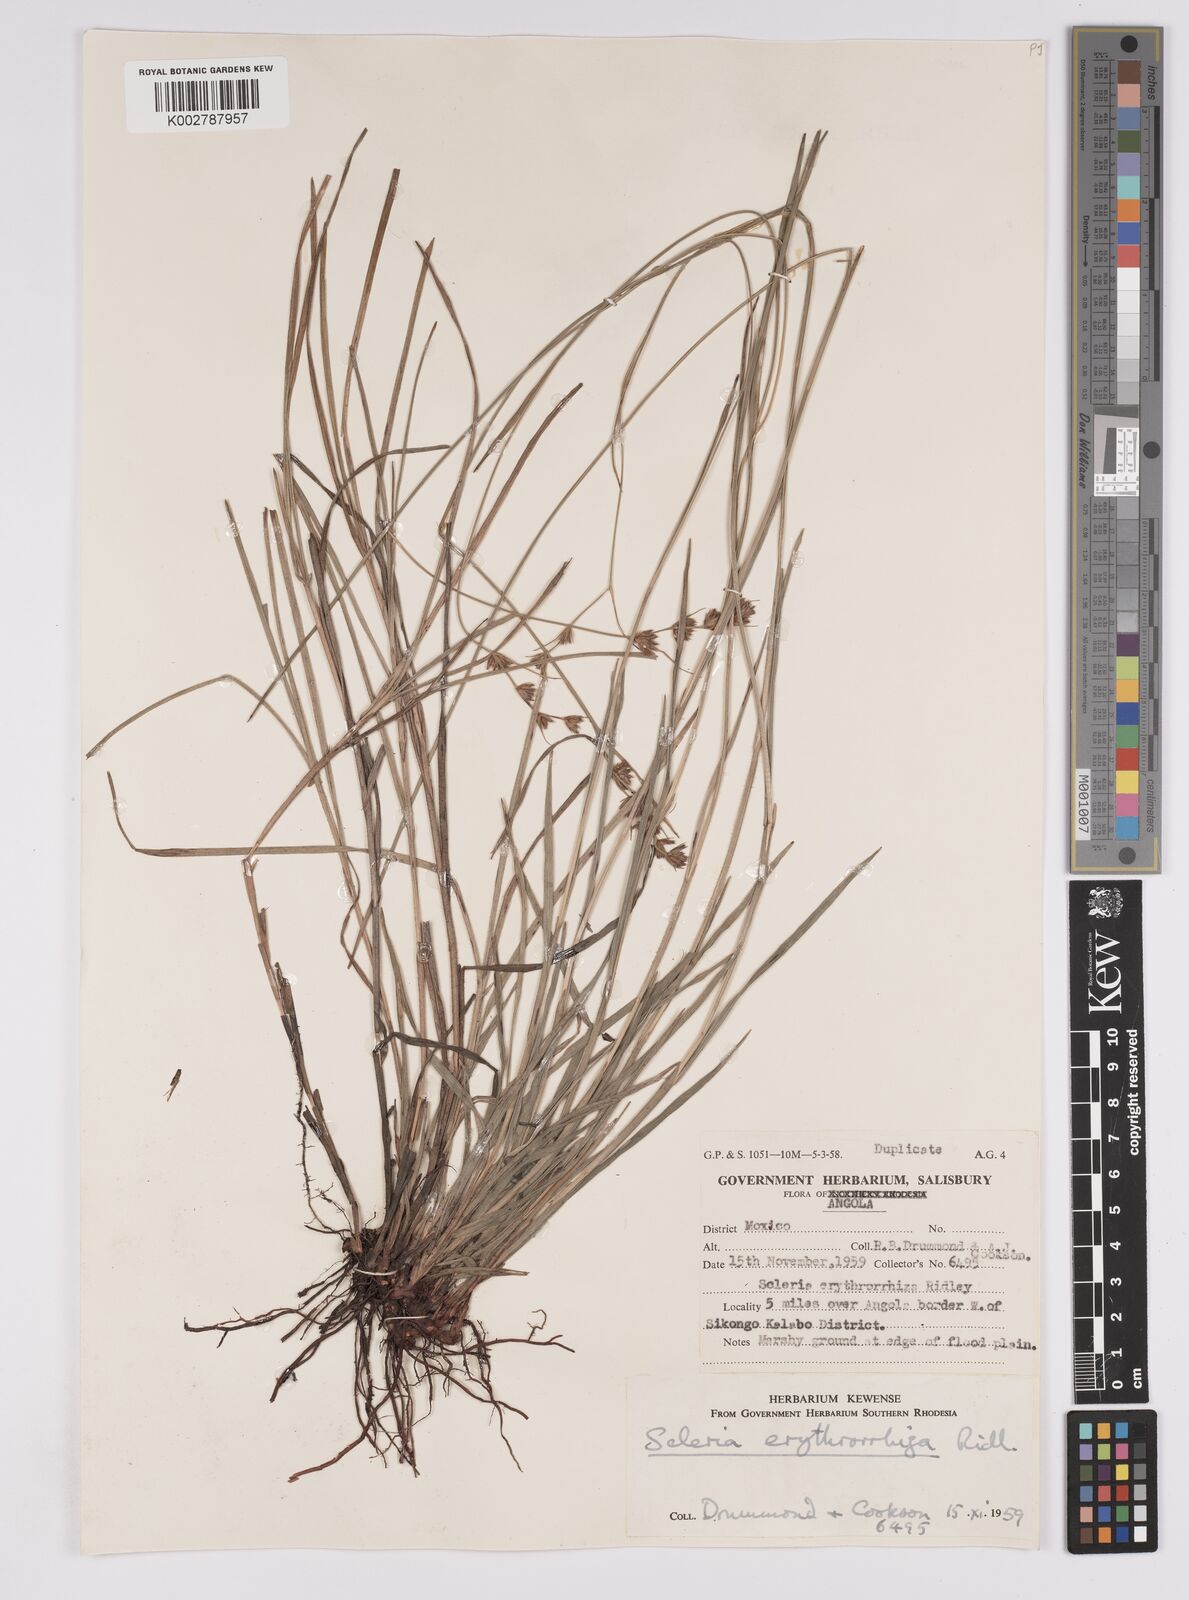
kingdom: Plantae
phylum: Tracheophyta
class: Liliopsida
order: Poales
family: Cyperaceae
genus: Scleria
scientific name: Scleria erythrorrhiza
